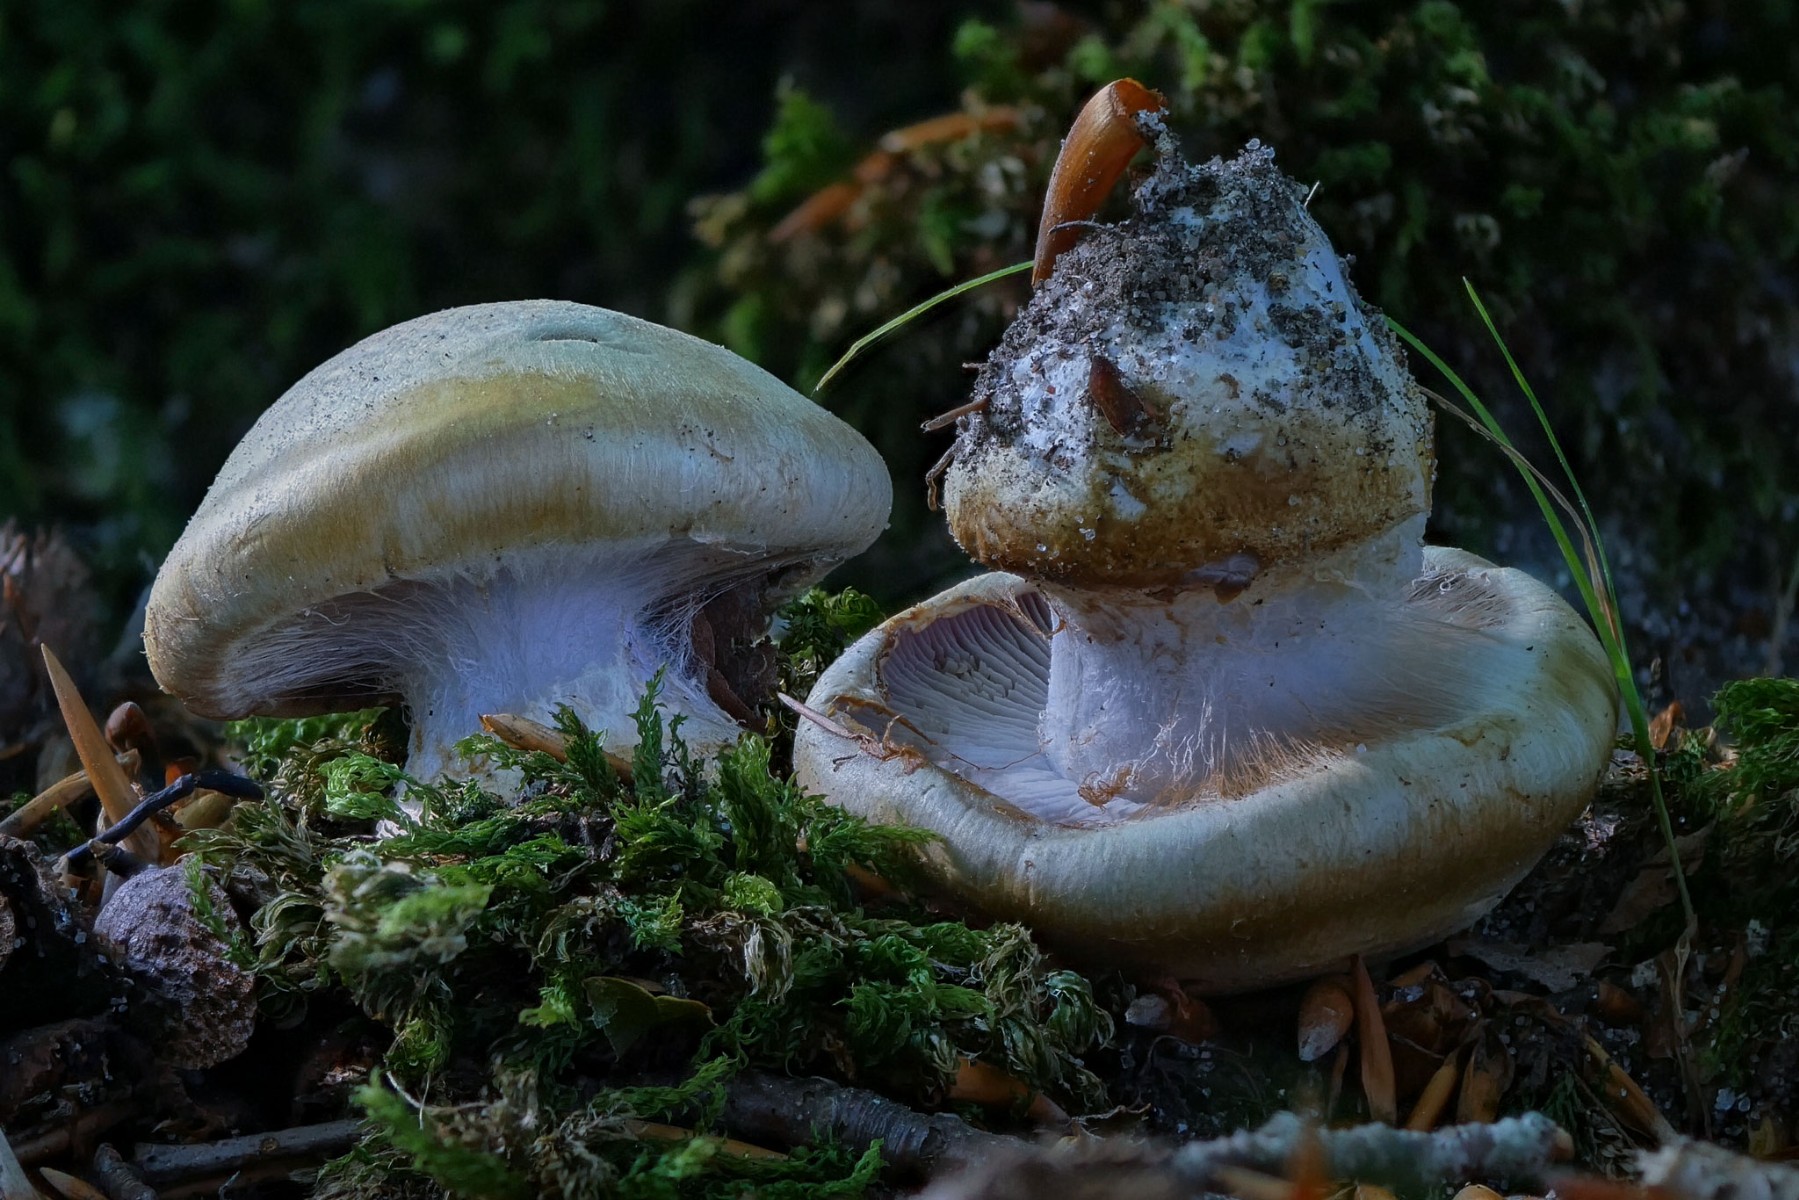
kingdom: Fungi
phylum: Basidiomycota
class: Agaricomycetes
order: Agaricales
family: Cortinariaceae
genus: Cortinarius
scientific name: Cortinarius anserinus
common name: bøge-slørhat
